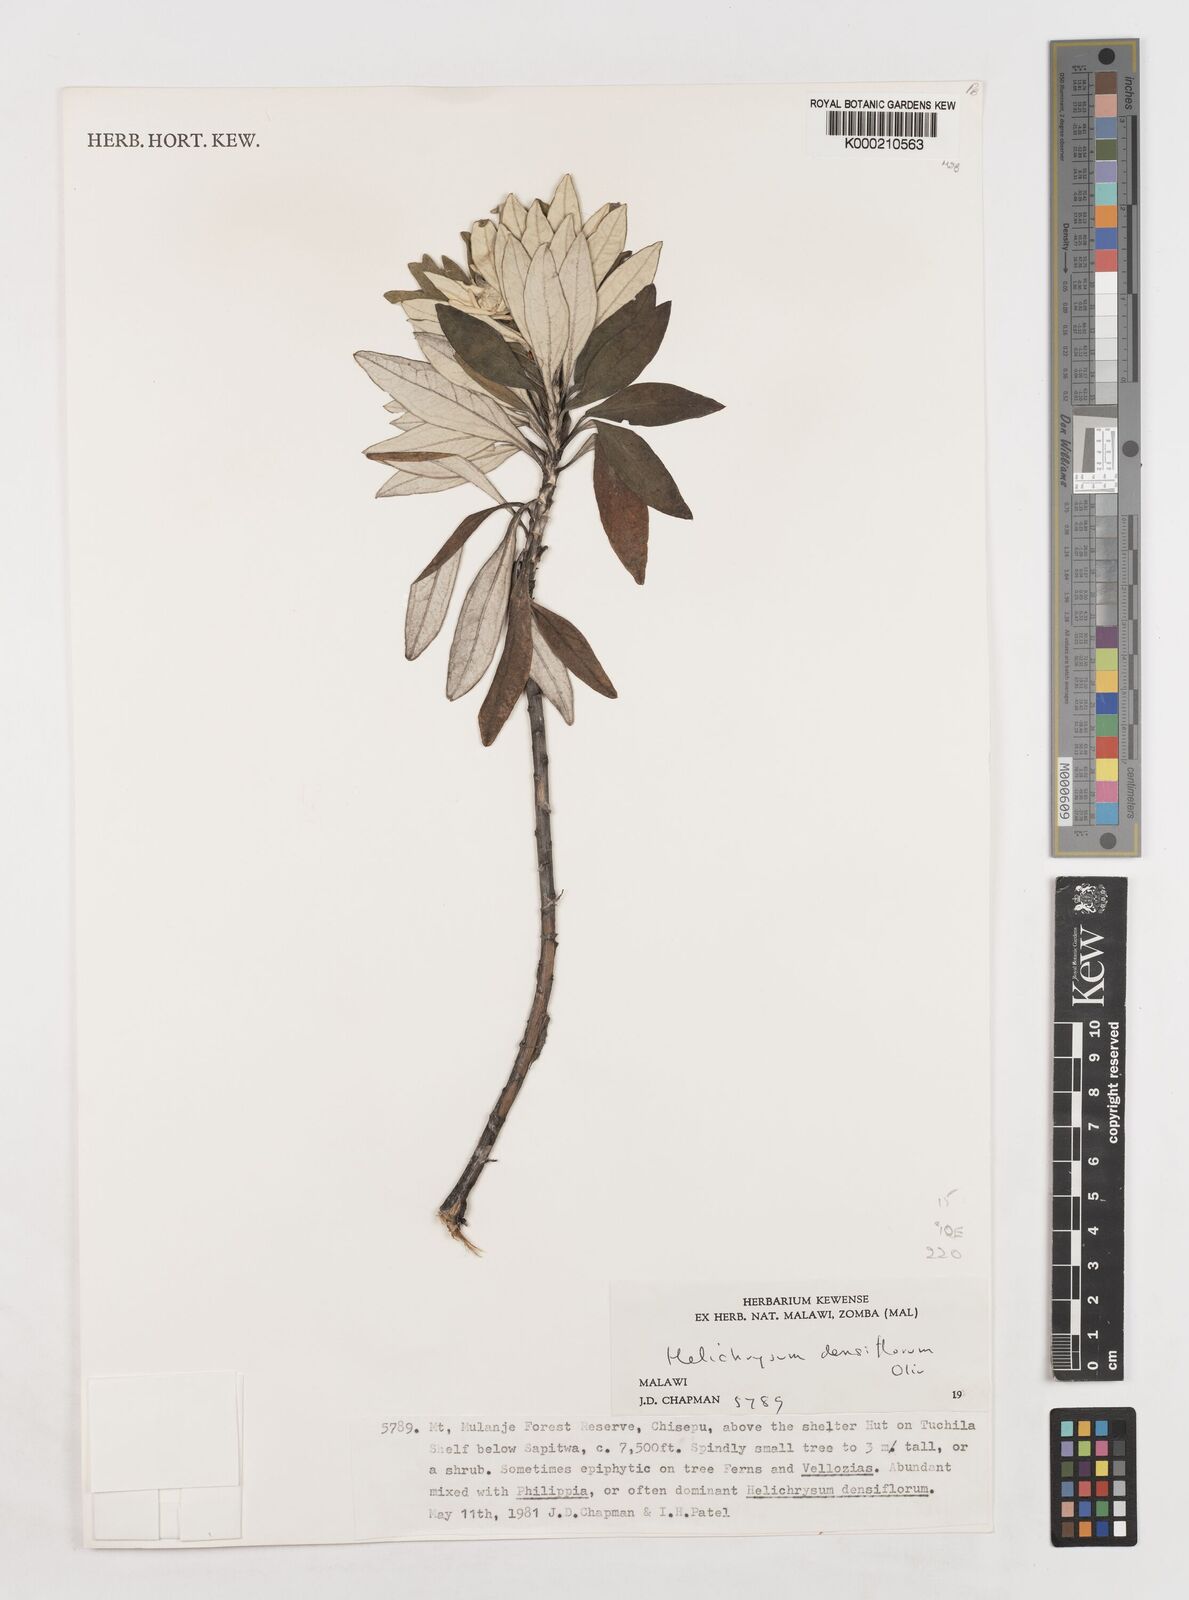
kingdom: Plantae
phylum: Tracheophyta
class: Magnoliopsida
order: Asterales
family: Asteraceae
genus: Helichrysum
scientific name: Helichrysum densiflorum
